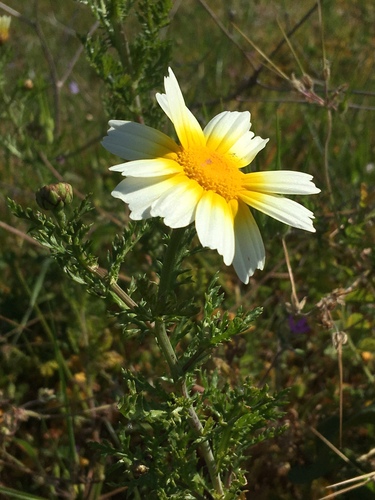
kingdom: Plantae
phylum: Tracheophyta
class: Magnoliopsida
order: Asterales
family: Asteraceae
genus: Glebionis
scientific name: Glebionis coronaria
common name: Crowndaisy
